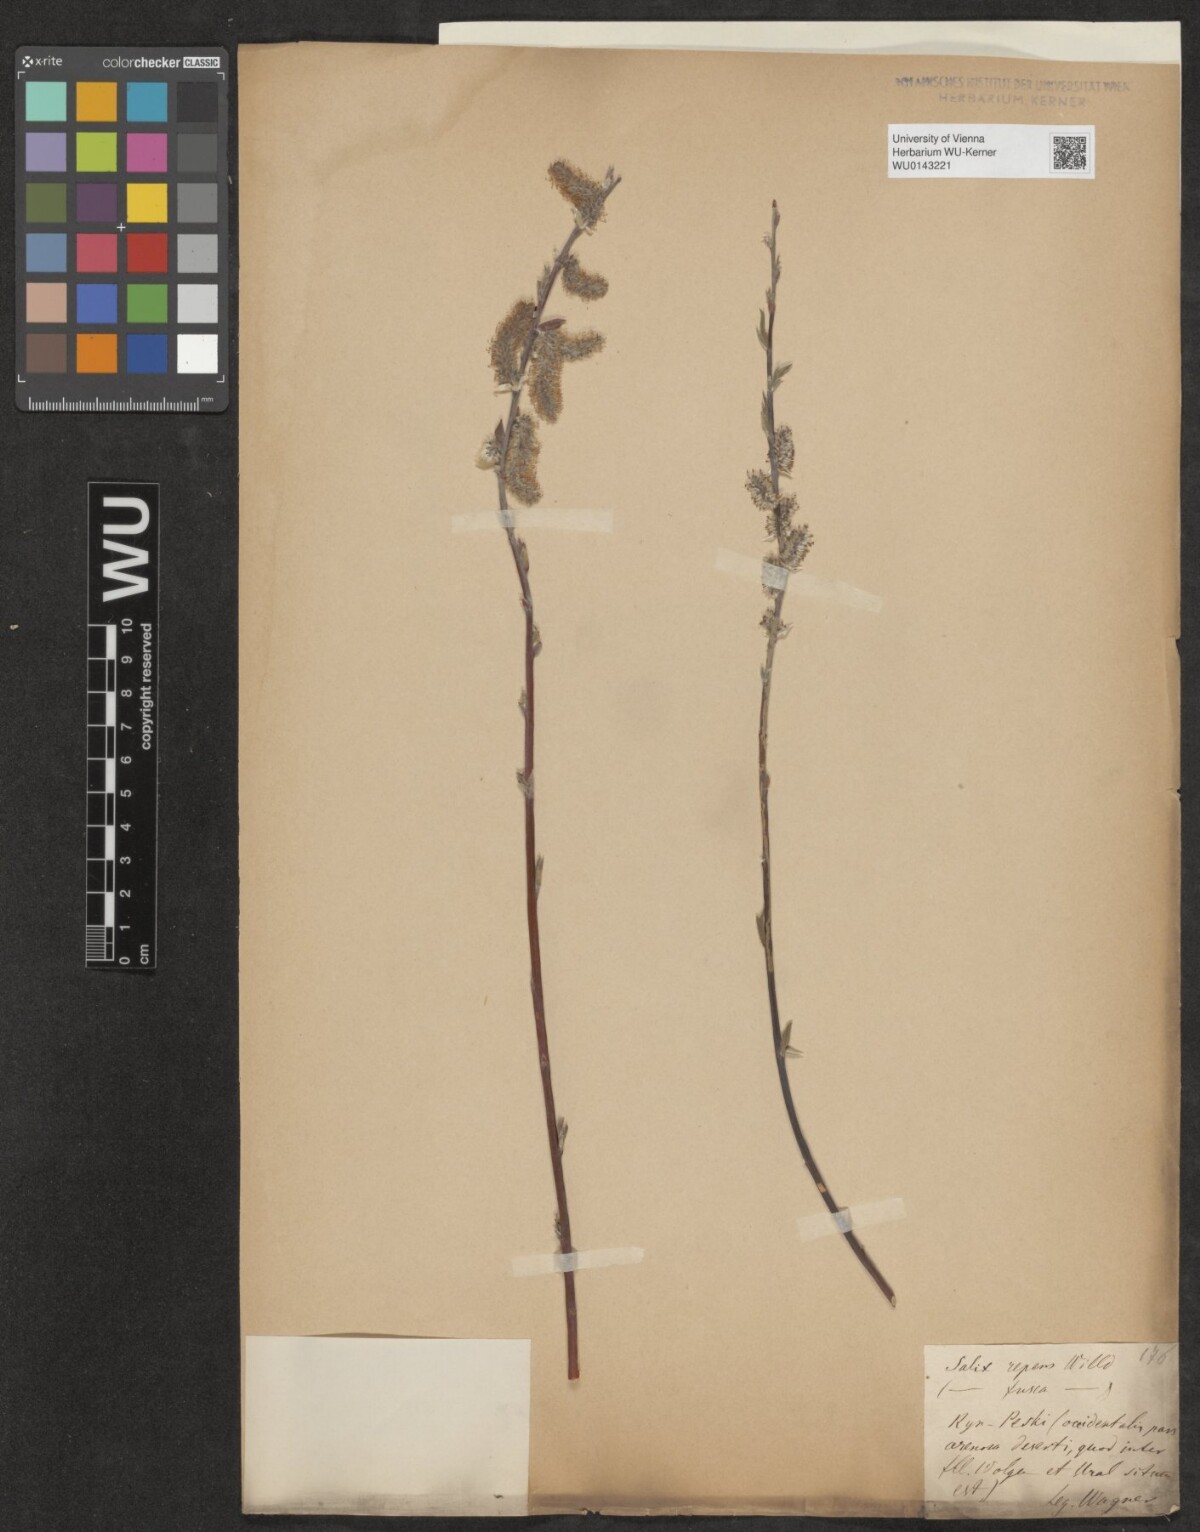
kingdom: Plantae
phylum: Tracheophyta
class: Magnoliopsida
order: Malpighiales
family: Salicaceae
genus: Salix
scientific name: Salix repens
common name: Creeping willow
